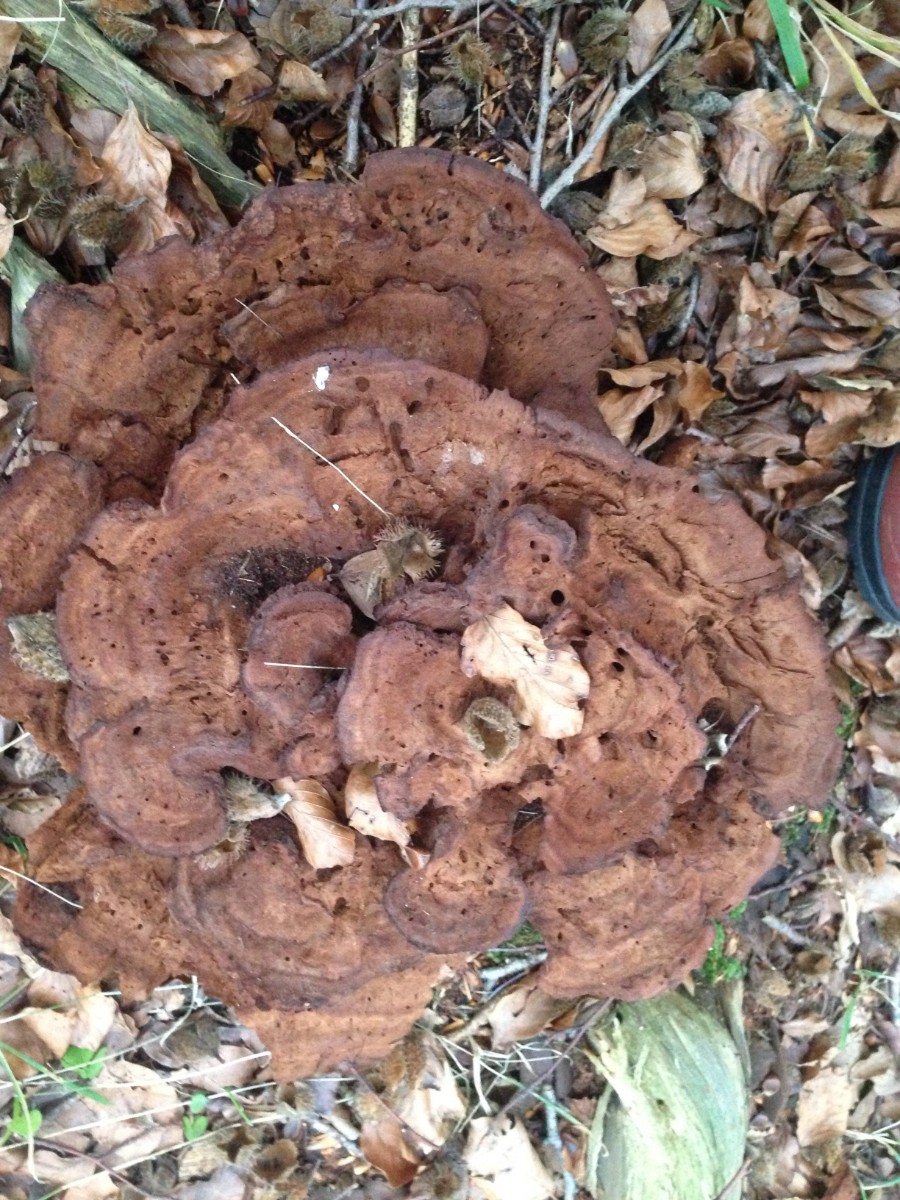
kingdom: Fungi
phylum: Basidiomycota
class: Agaricomycetes
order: Polyporales
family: Laetiporaceae
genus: Phaeolus
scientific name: Phaeolus schweinitzii
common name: brunporesvamp
